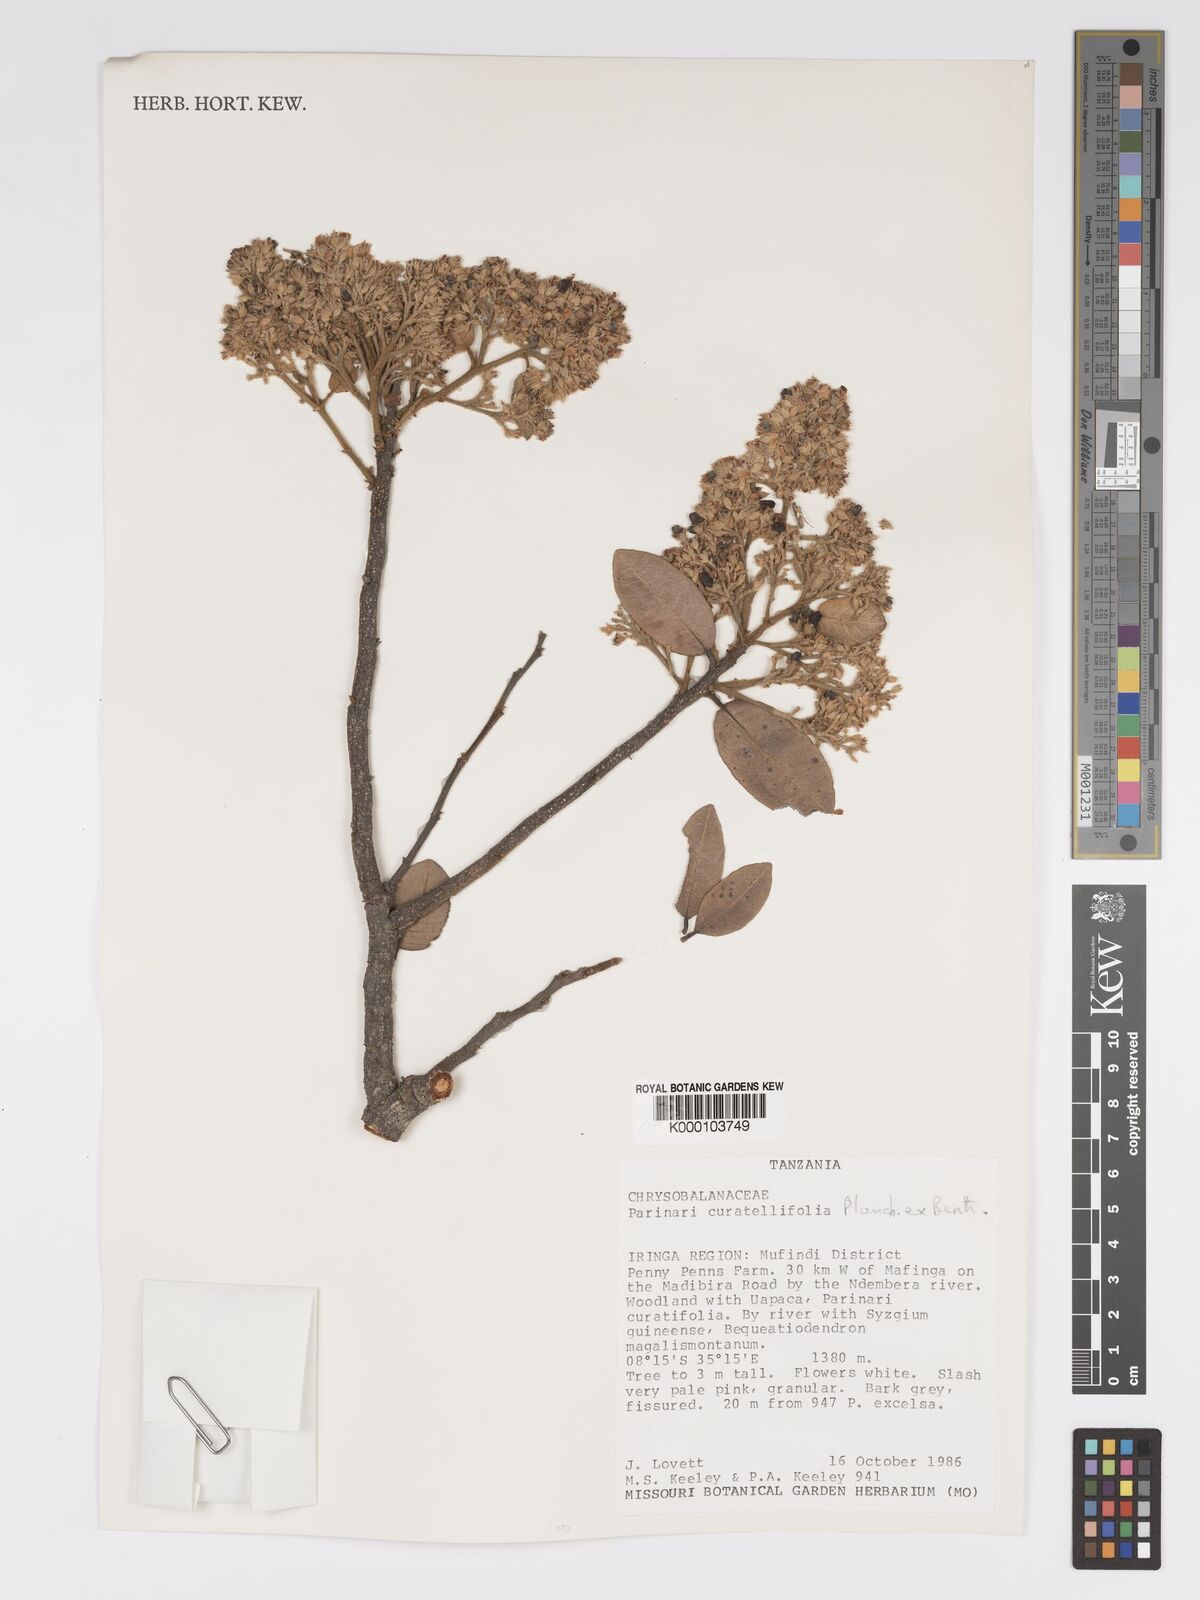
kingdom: Plantae
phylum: Tracheophyta
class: Magnoliopsida
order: Malpighiales
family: Chrysobalanaceae
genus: Parinari
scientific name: Parinari curatellifolia
